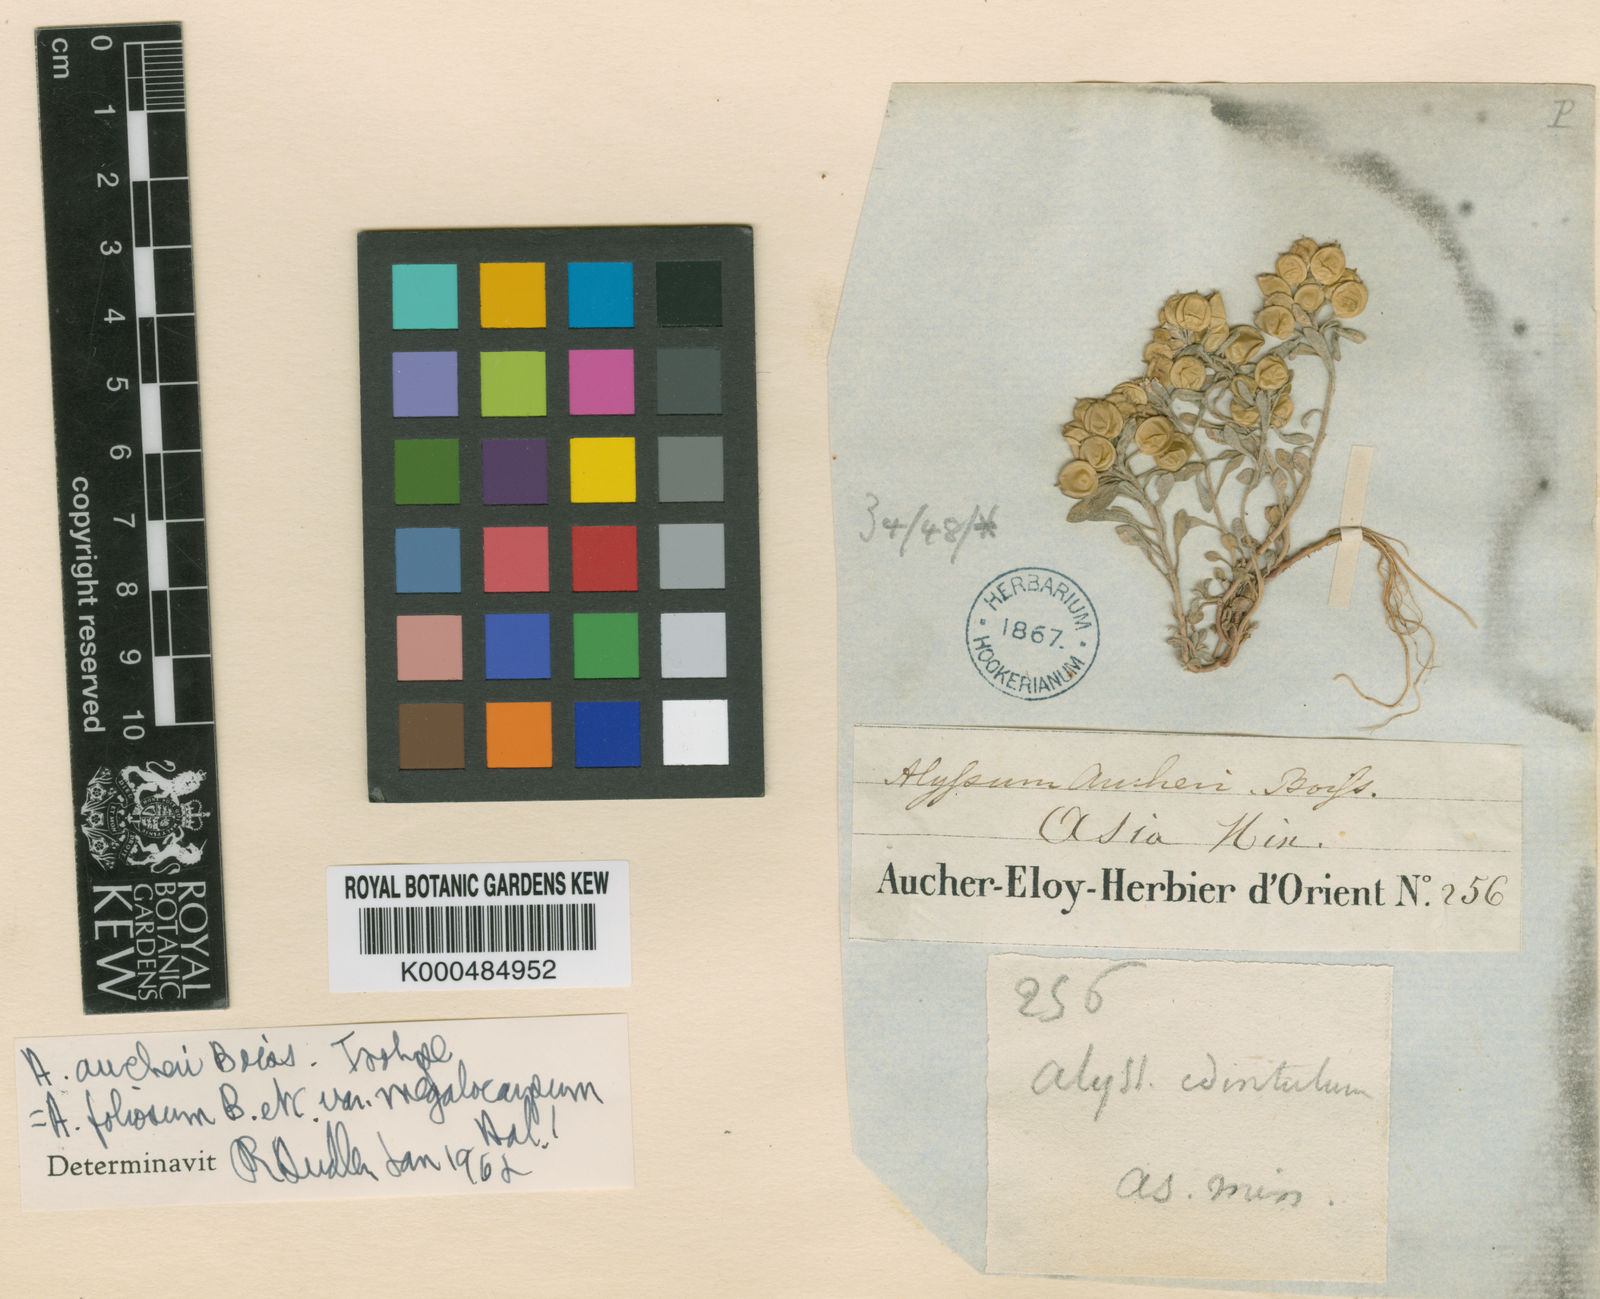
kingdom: Plantae
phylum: Tracheophyta
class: Magnoliopsida
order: Brassicales
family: Brassicaceae
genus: Alyssum
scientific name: Alyssum foliosum
